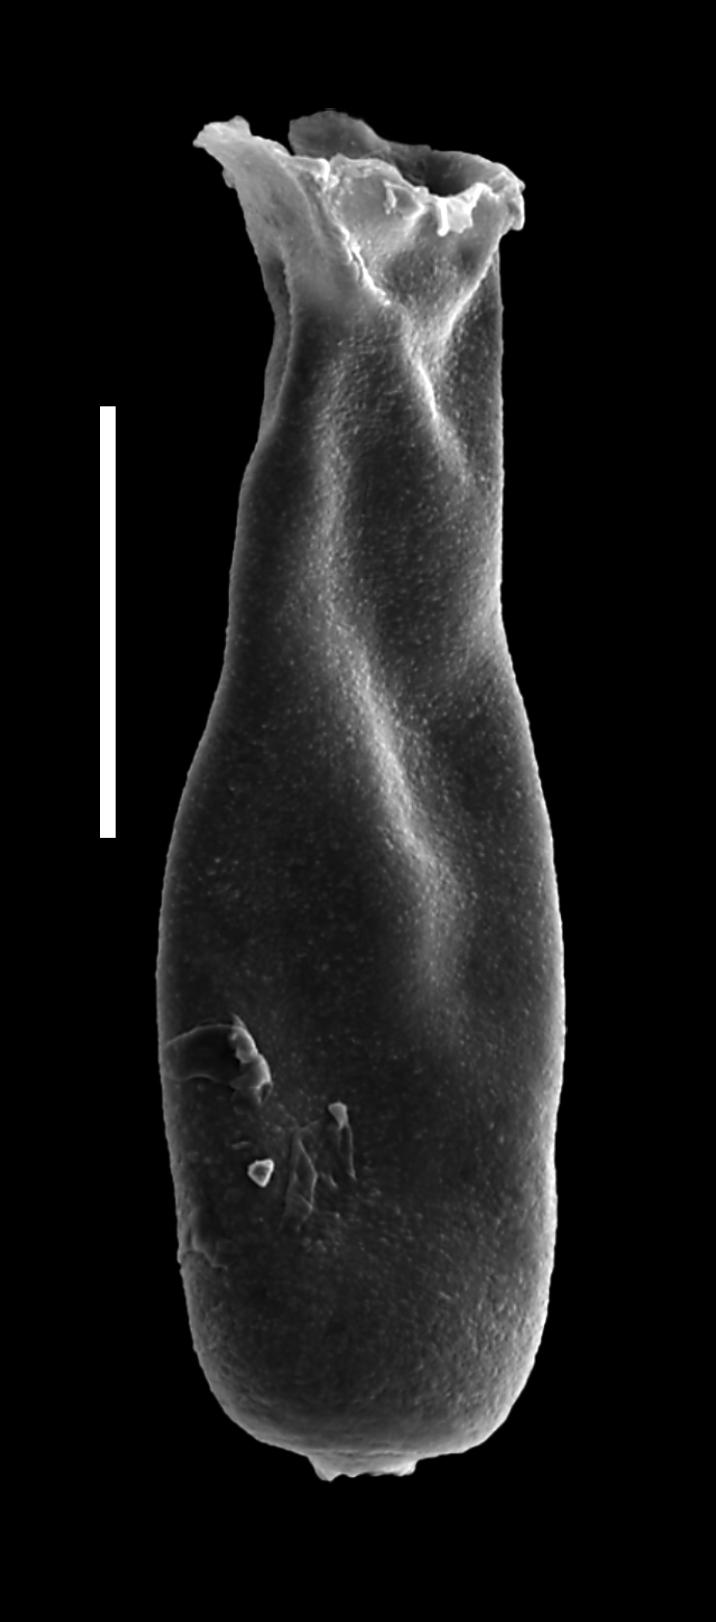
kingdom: Animalia
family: Conochitinidae
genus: Conochitina
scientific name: Conochitina
